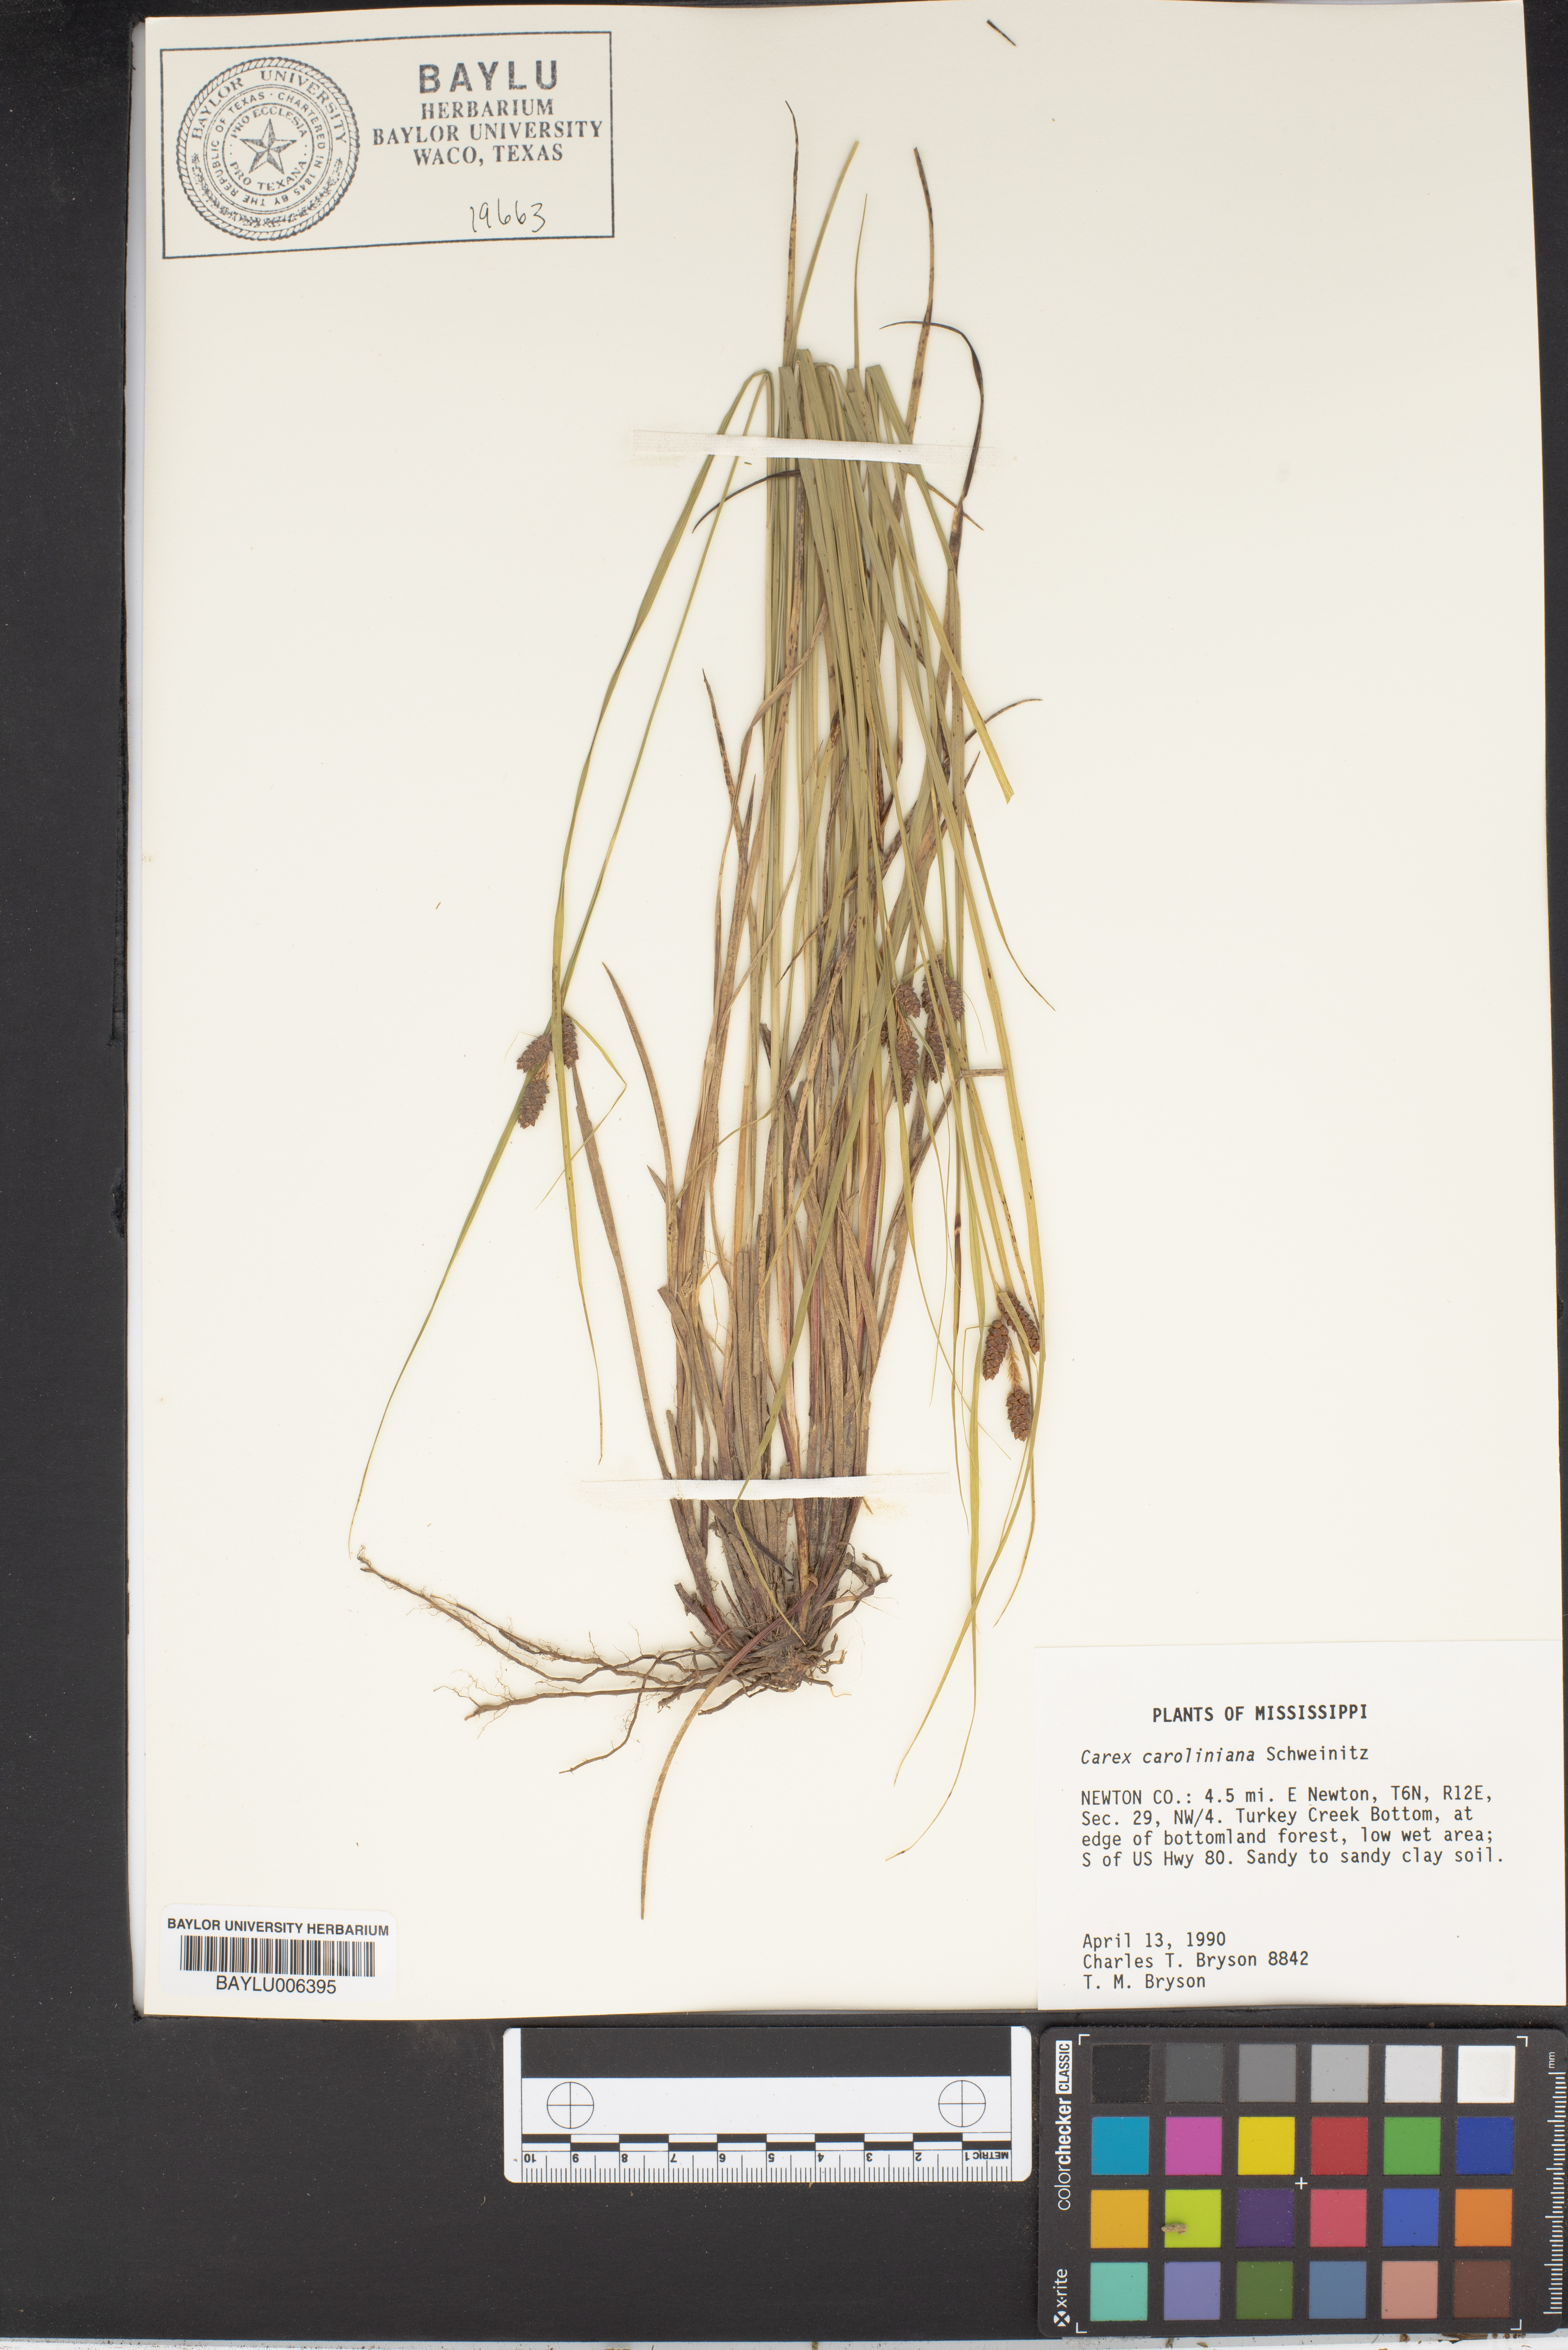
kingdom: Plantae
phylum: Tracheophyta
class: Liliopsida
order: Poales
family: Cyperaceae
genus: Carex
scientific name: Carex caroliniana
